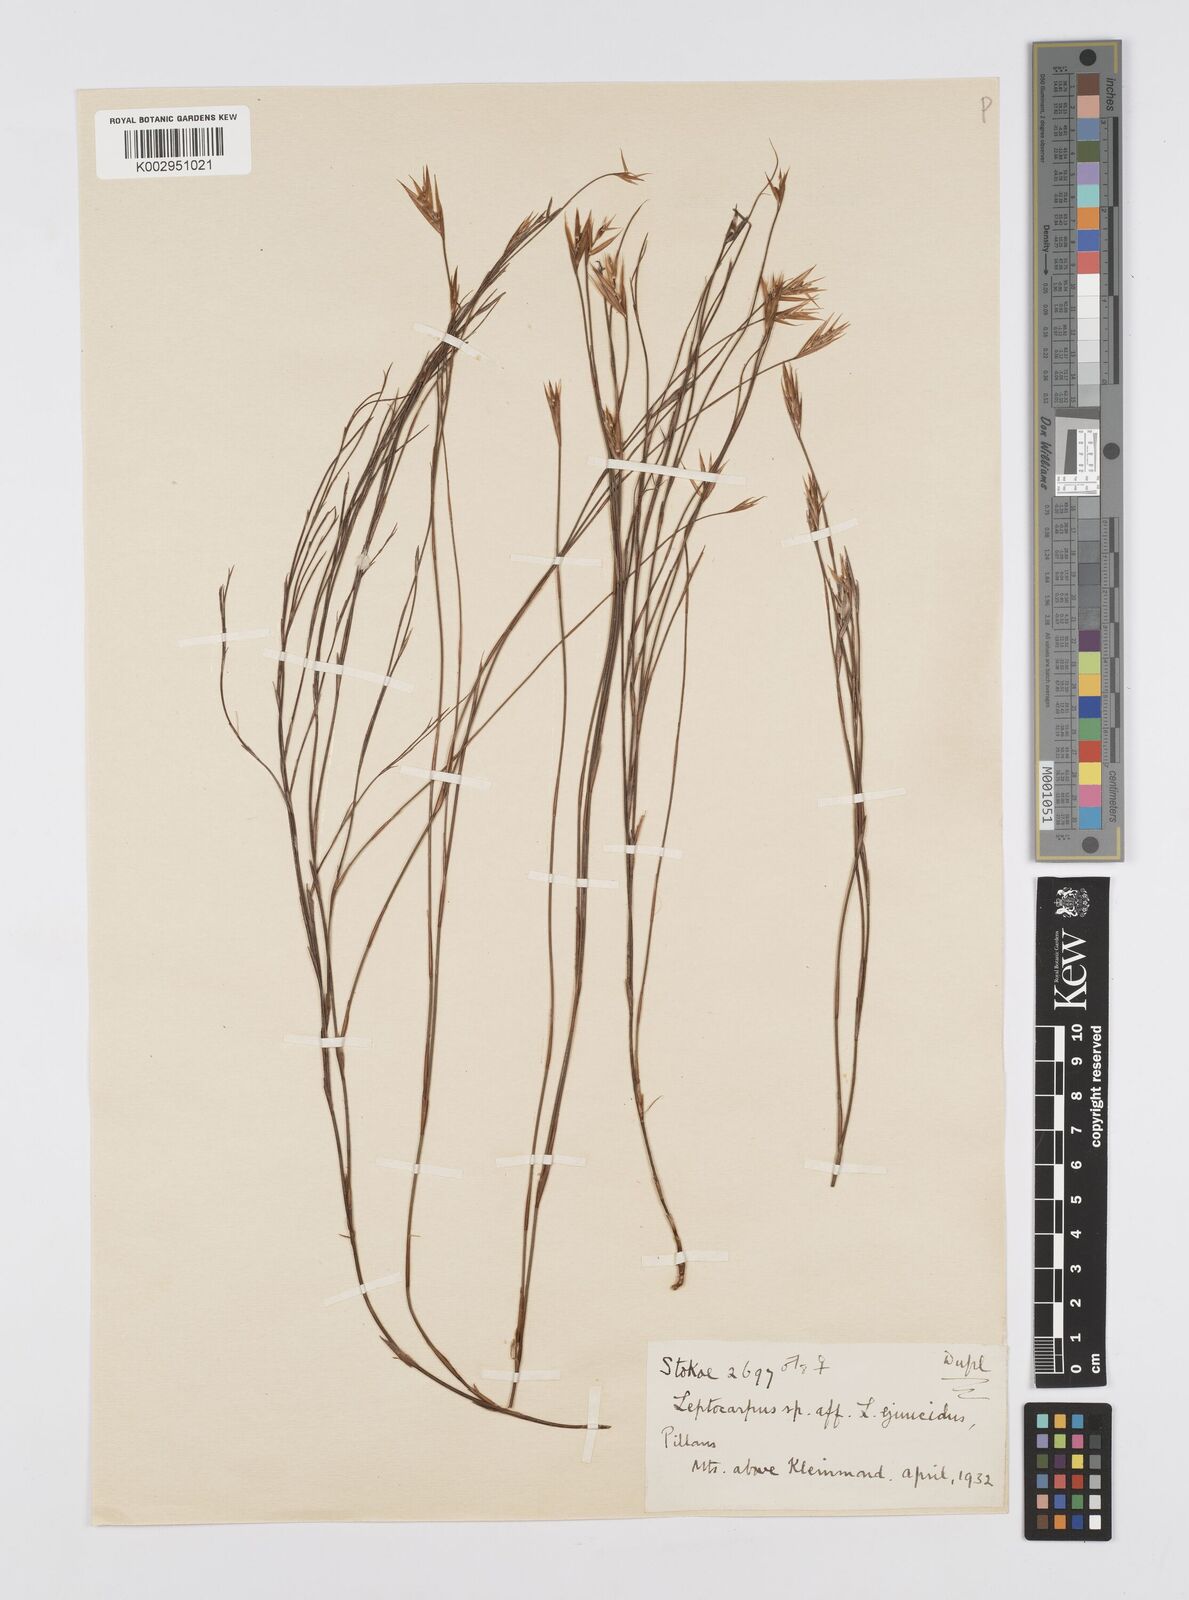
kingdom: Plantae
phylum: Tracheophyta
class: Liliopsida
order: Poales
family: Restionaceae
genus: Restio
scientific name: Restio ejuncidus
